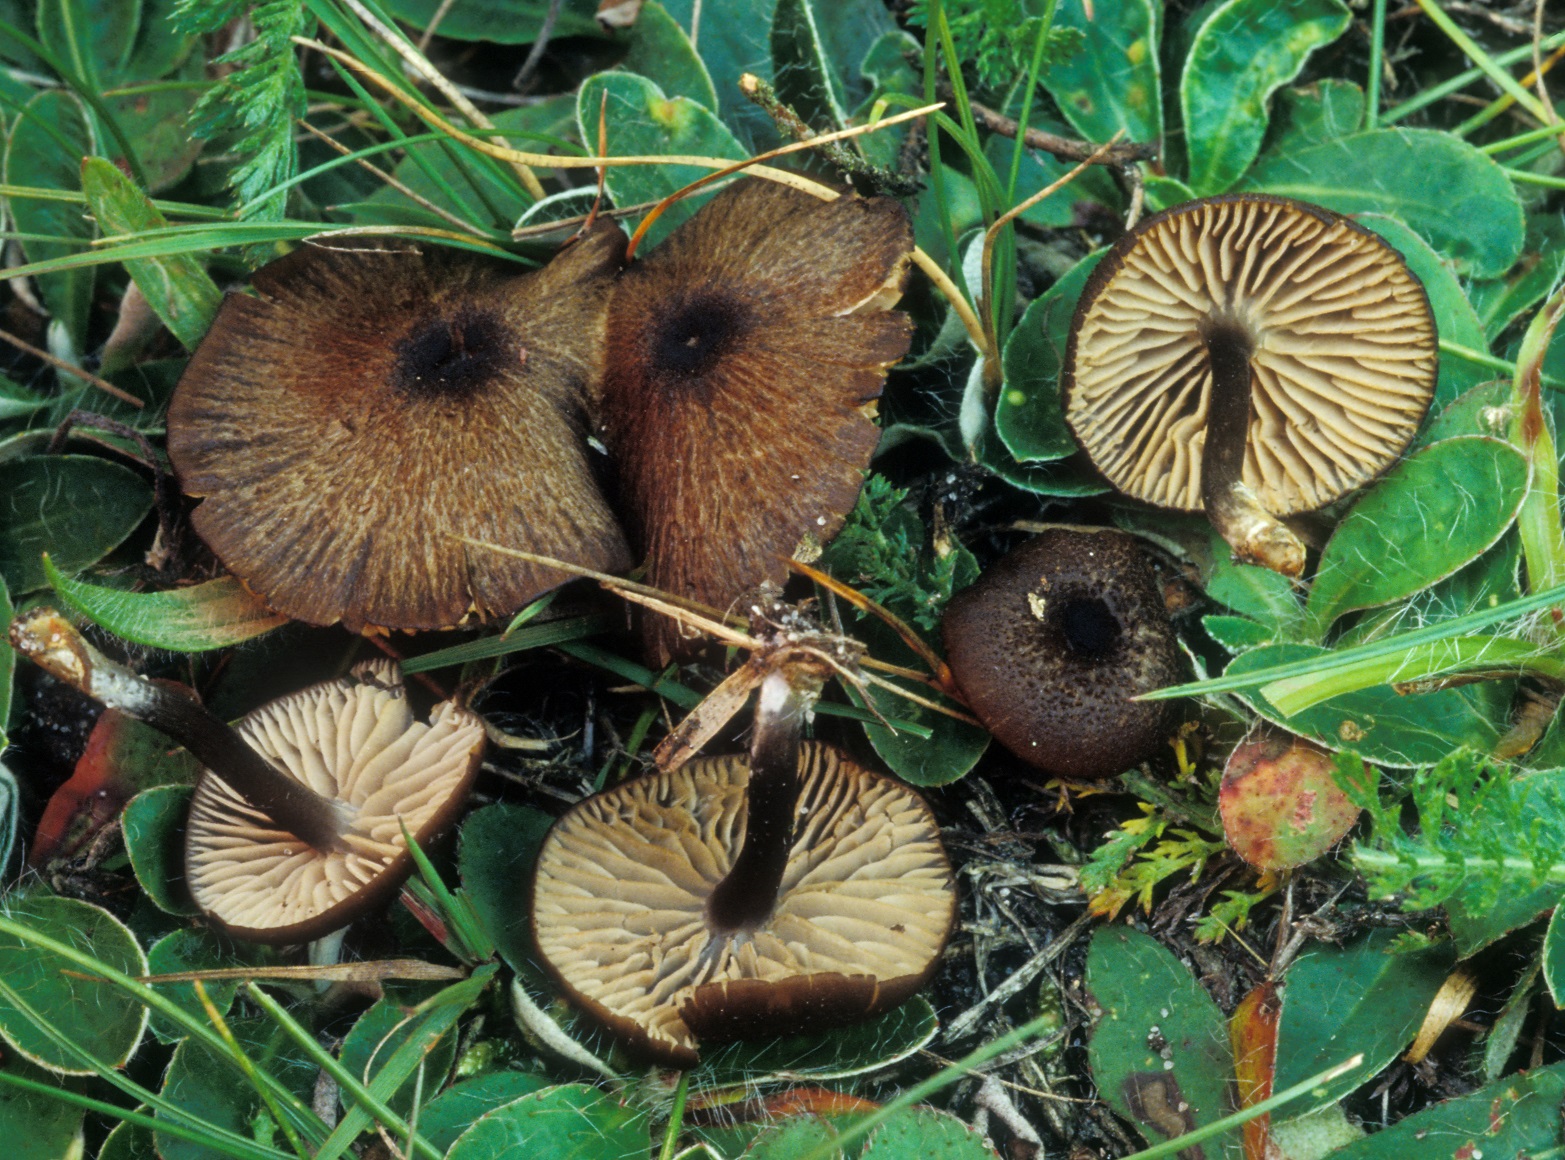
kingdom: Fungi
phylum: Basidiomycota
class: Agaricomycetes
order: Agaricales
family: Entolomataceae
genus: Entoloma
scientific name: Entoloma turci
